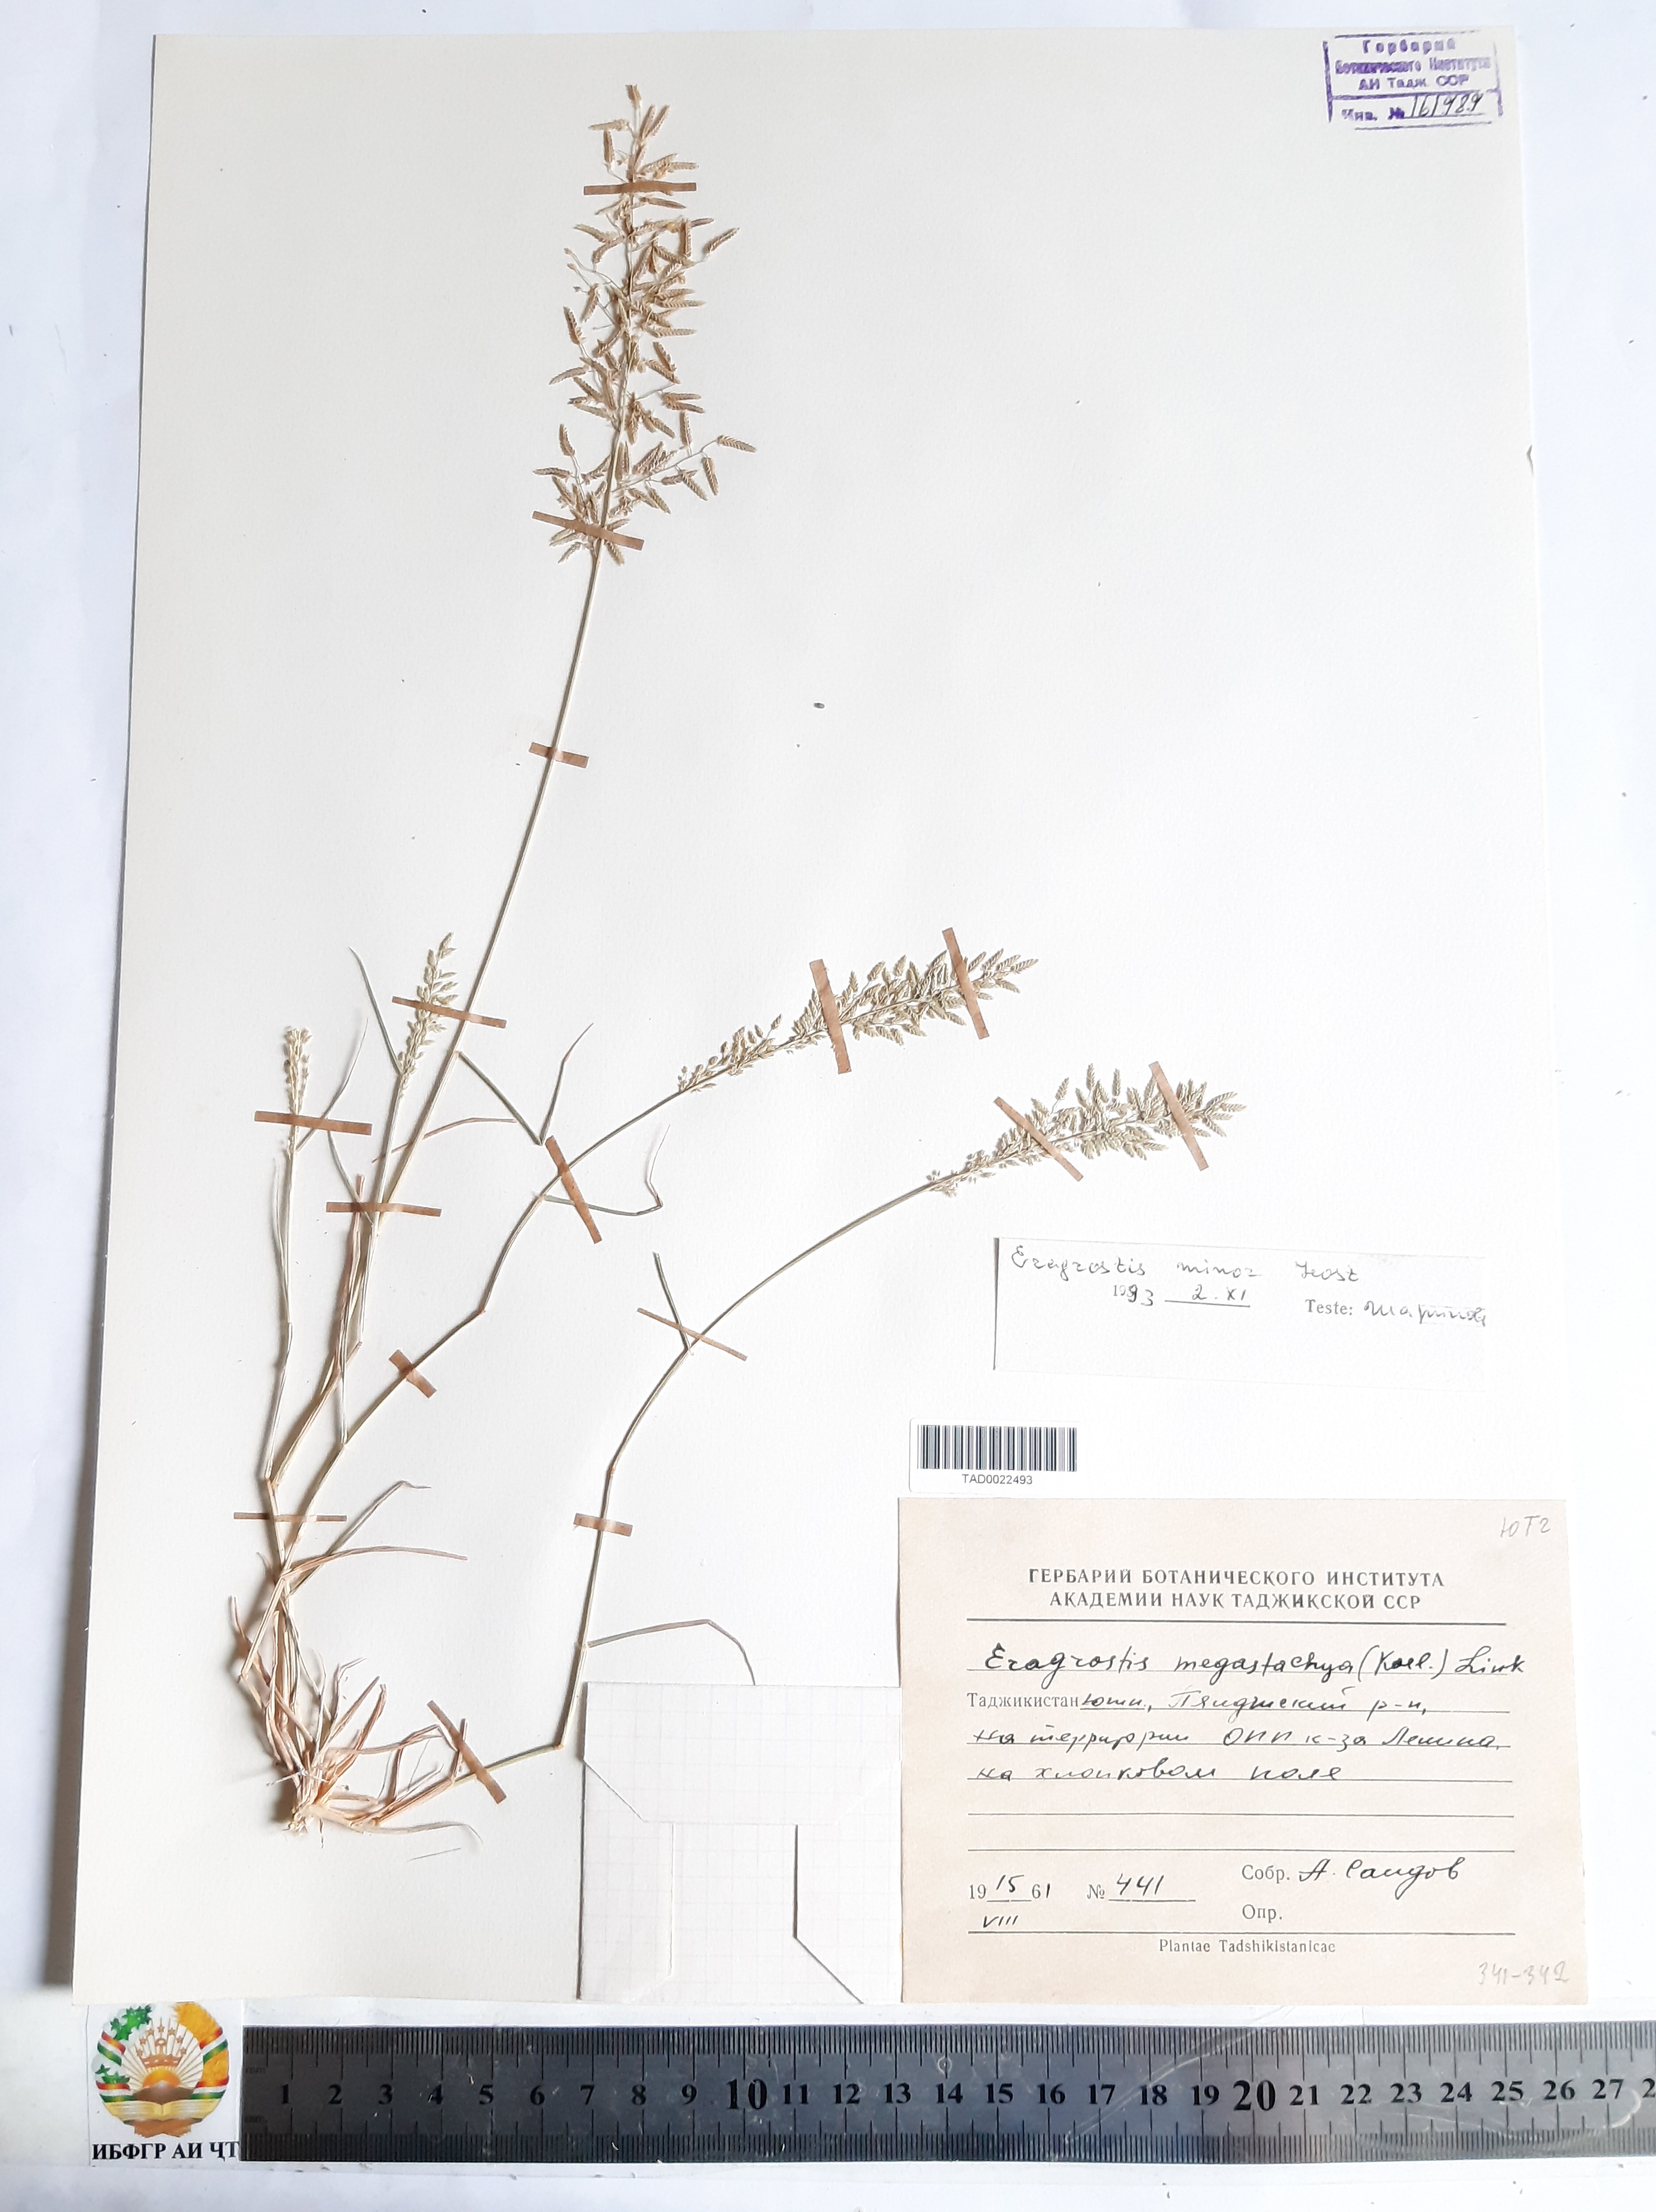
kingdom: Plantae
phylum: Tracheophyta
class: Liliopsida
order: Poales
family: Poaceae
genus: Eragrostis
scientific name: Eragrostis minor
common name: Small love-grass
